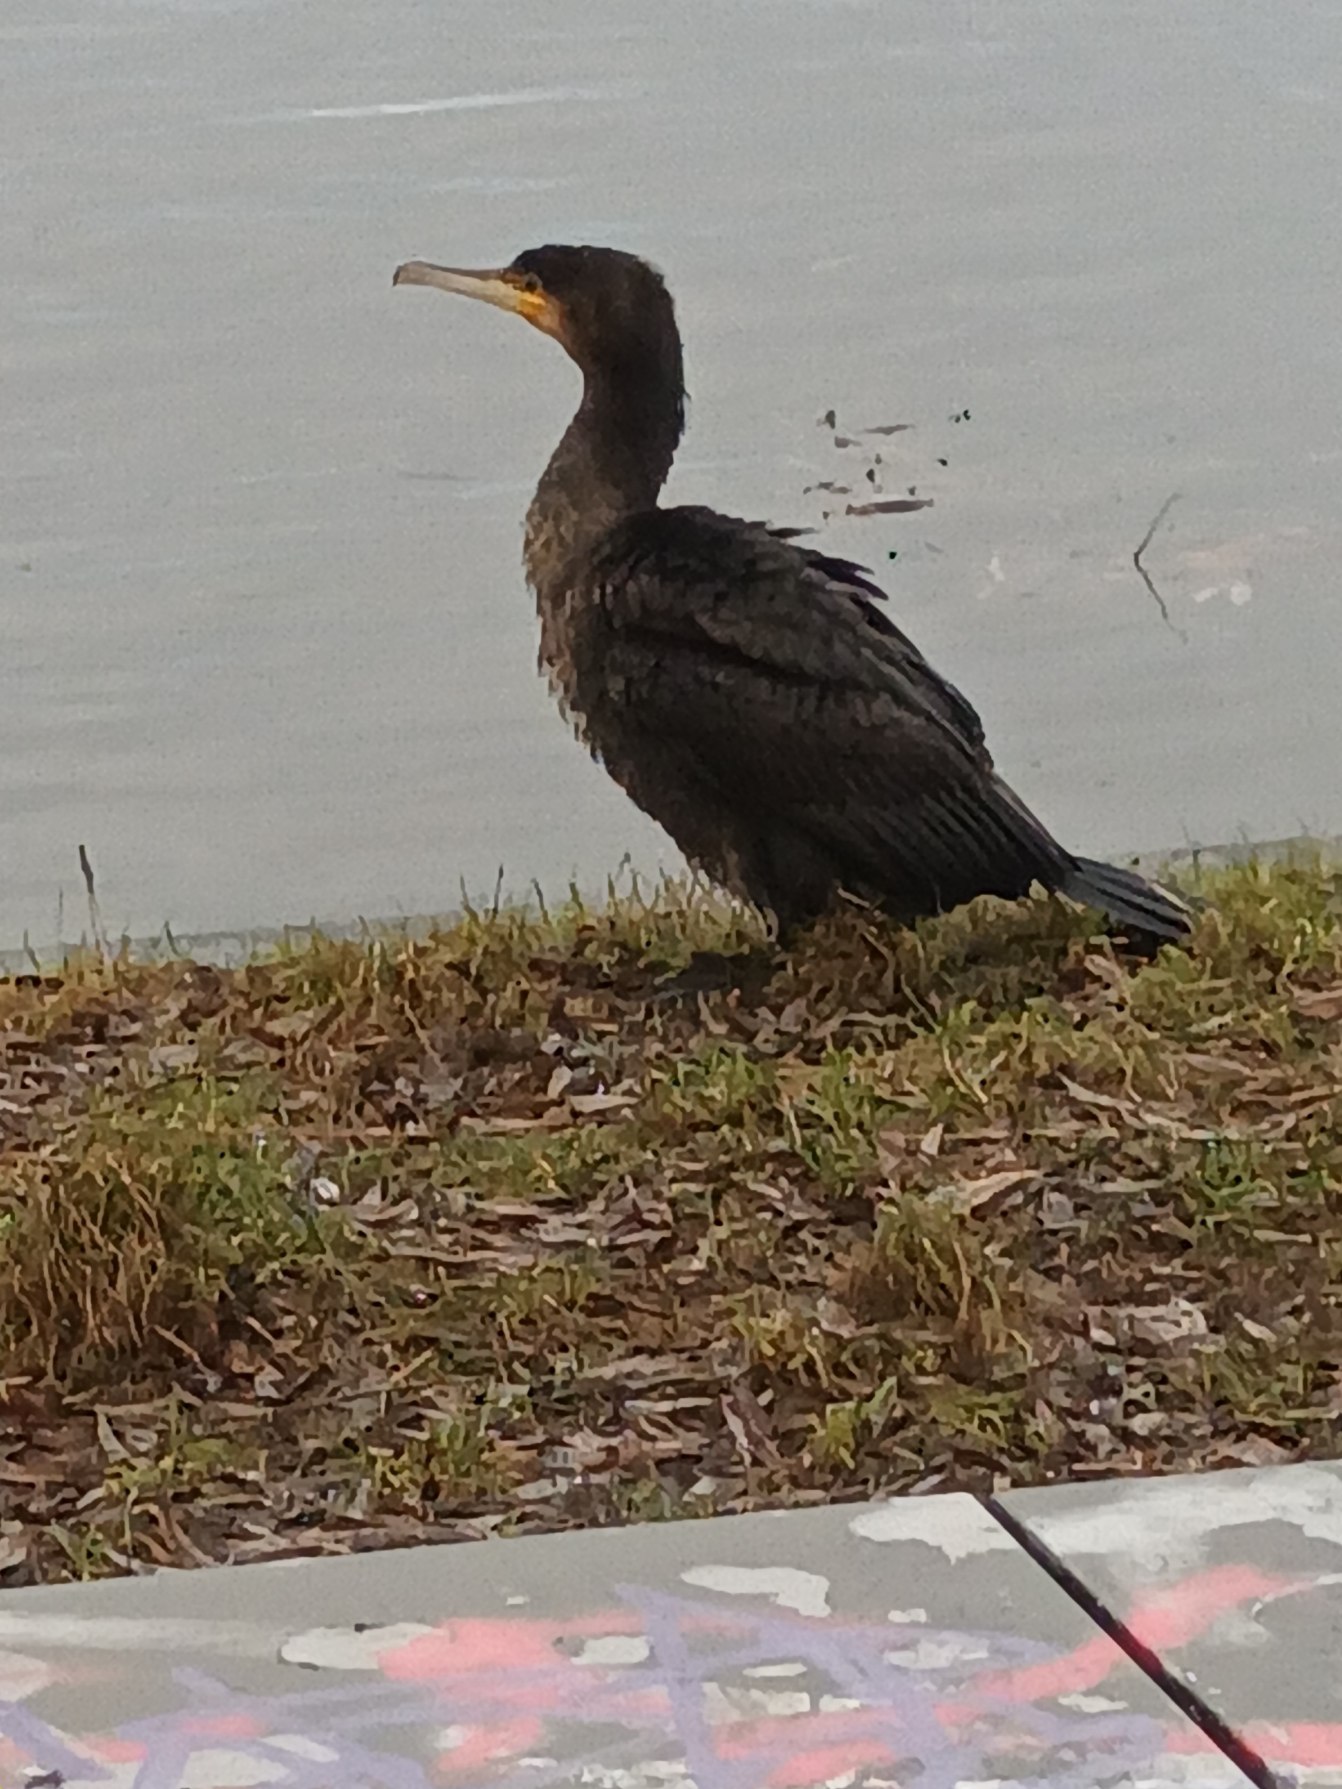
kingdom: Animalia
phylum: Chordata
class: Aves
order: Suliformes
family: Phalacrocoracidae
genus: Phalacrocorax
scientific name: Phalacrocorax carbo
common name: Skarv
